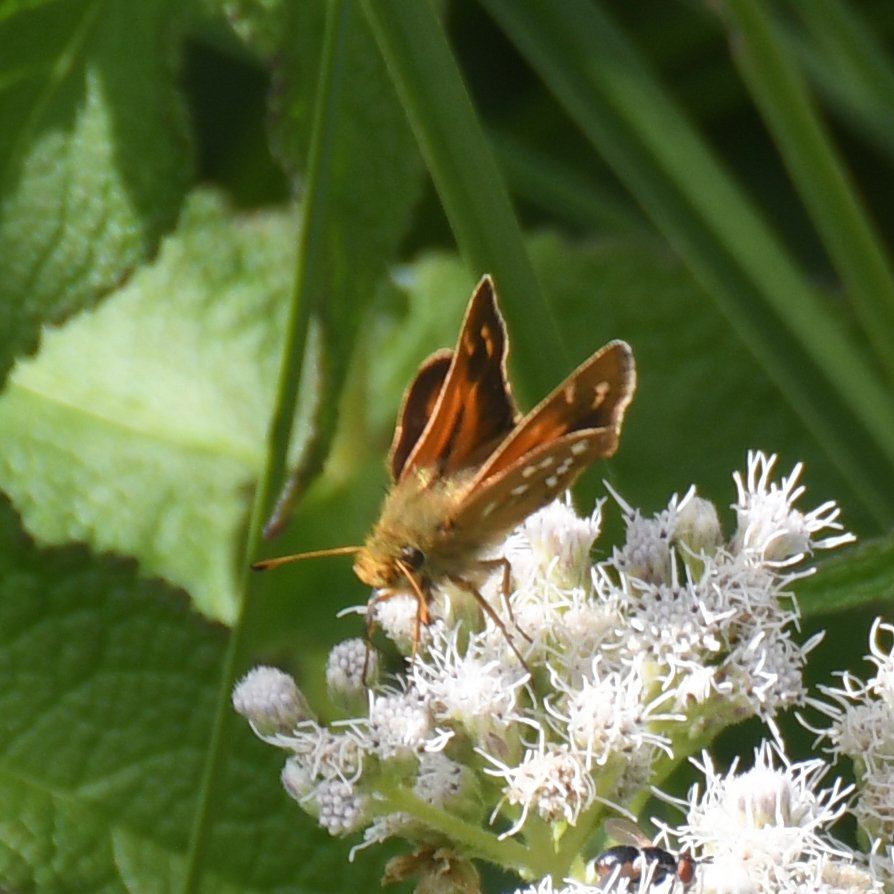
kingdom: Animalia
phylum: Arthropoda
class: Insecta
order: Lepidoptera
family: Hesperiidae
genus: Hesperia
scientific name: Hesperia comma
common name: Common Branded Skipper
